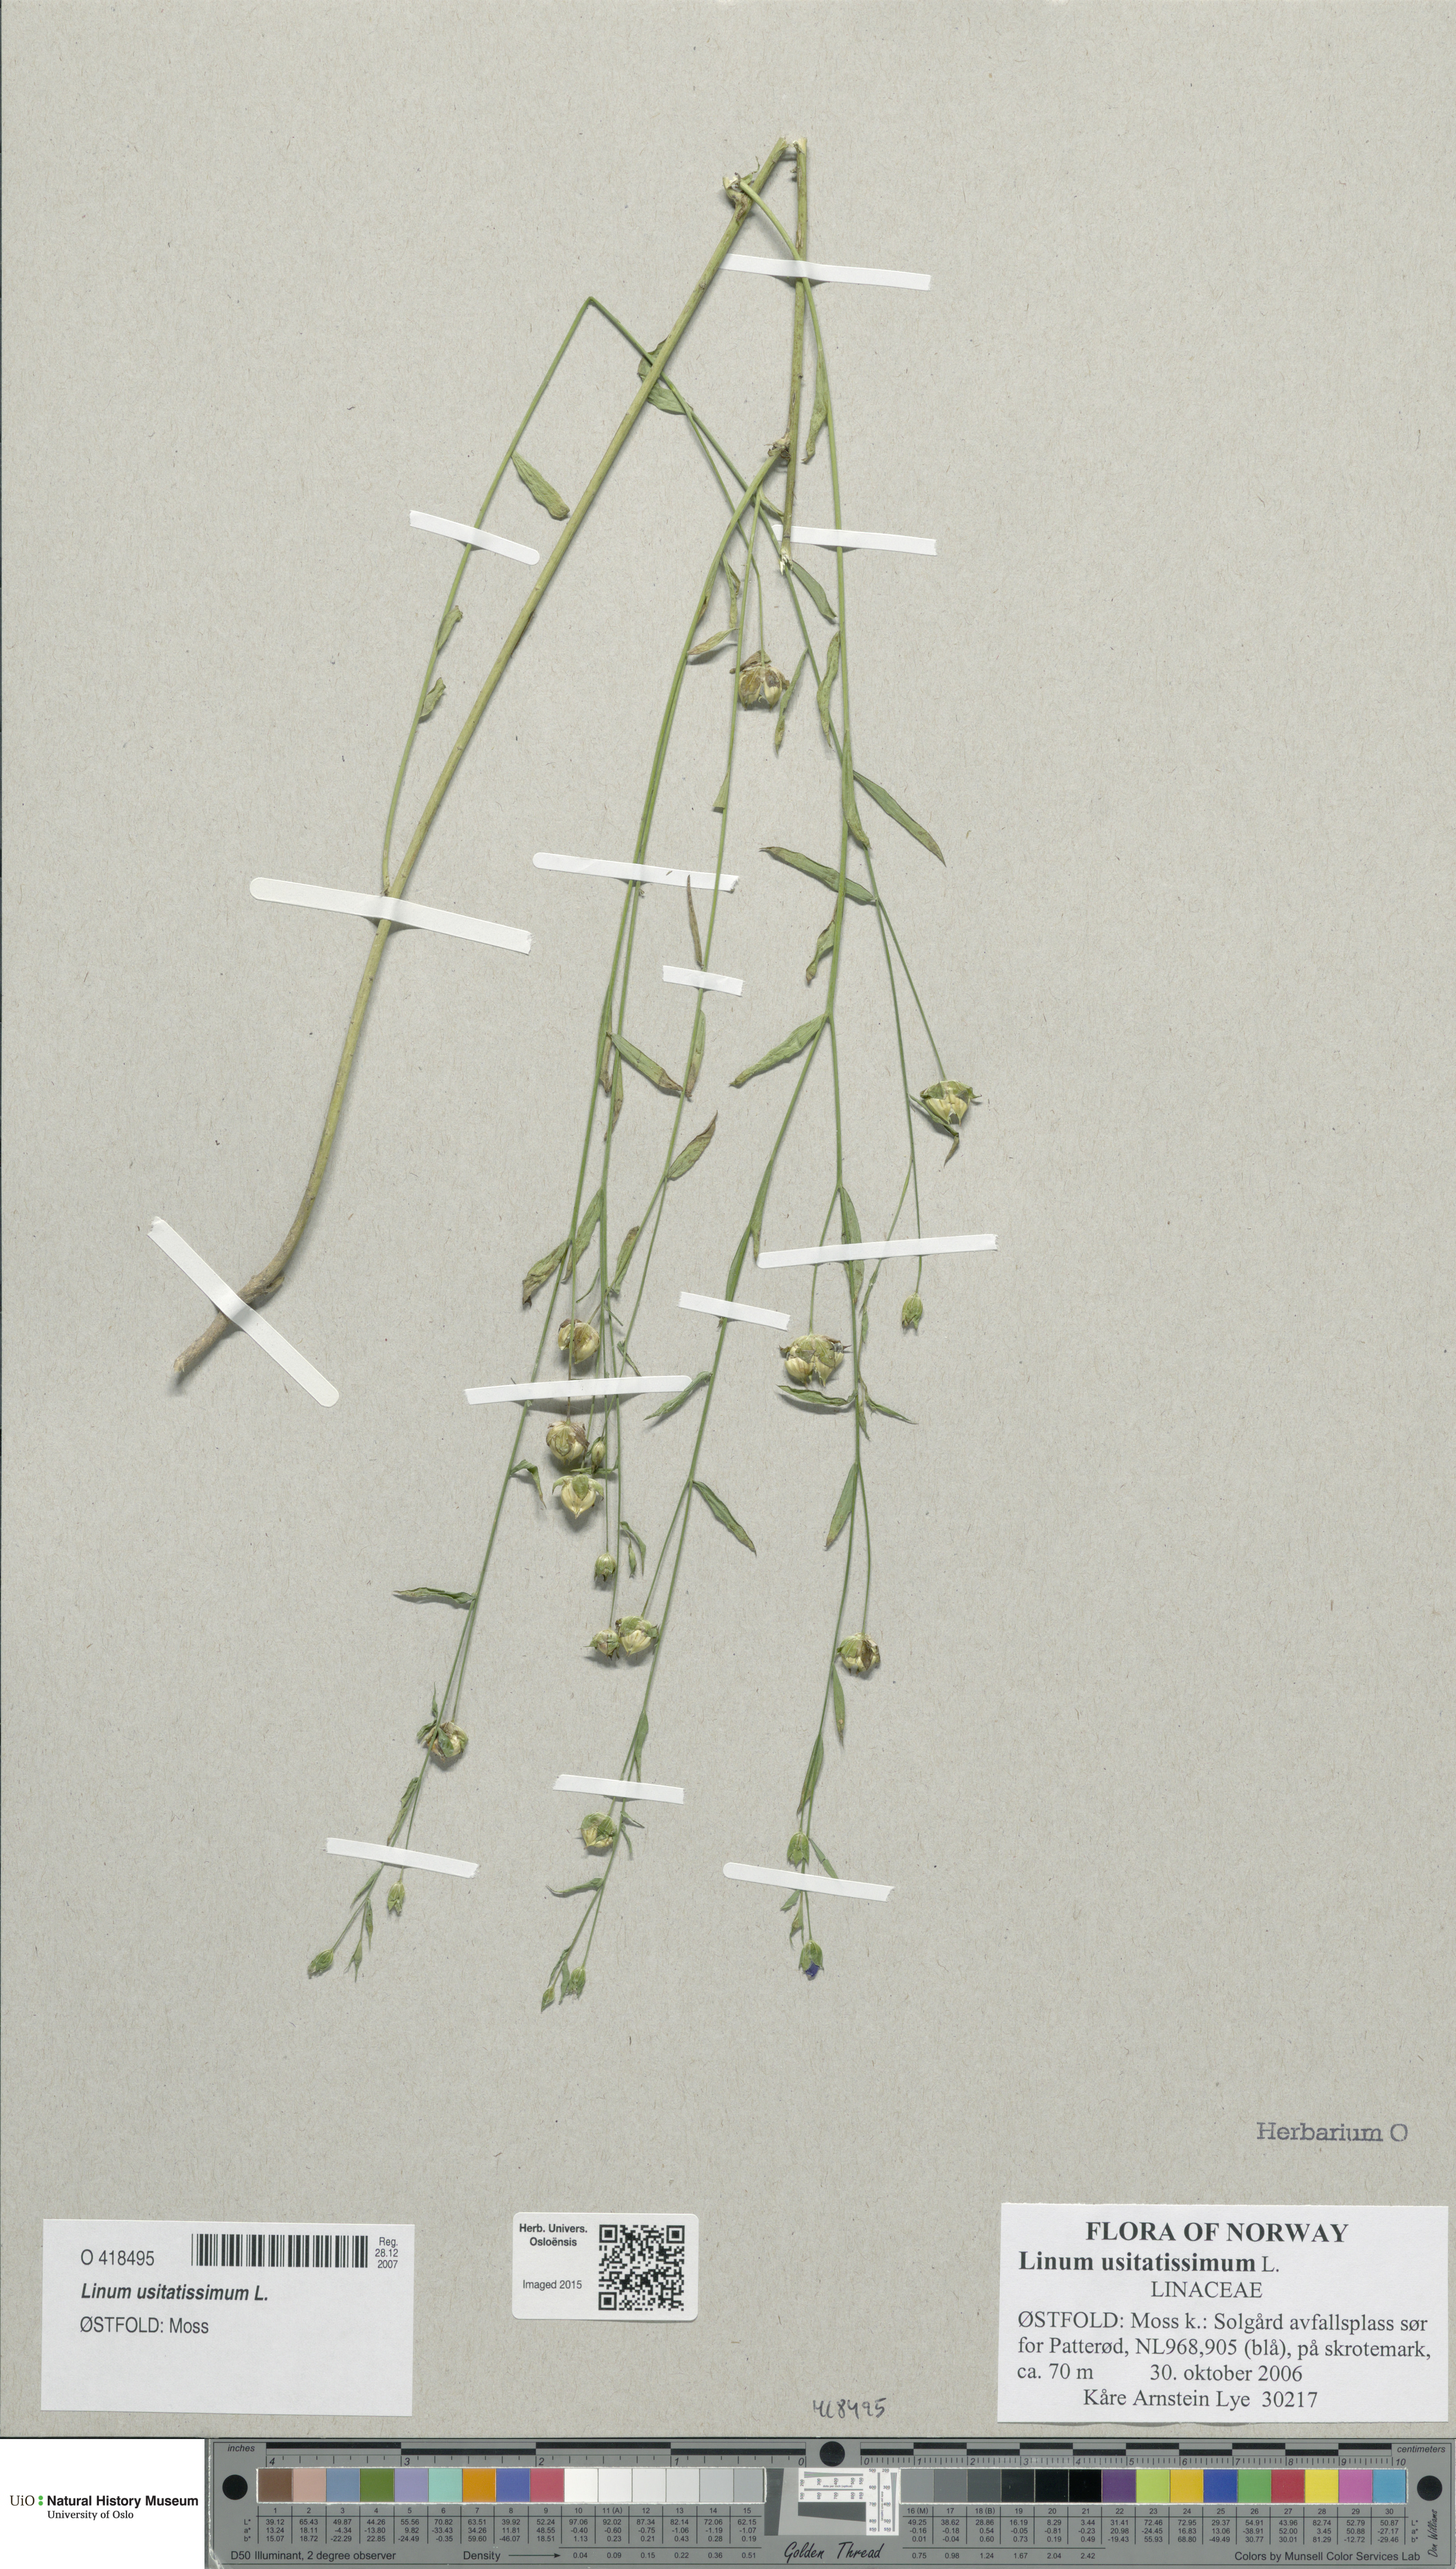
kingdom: Plantae
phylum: Tracheophyta
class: Magnoliopsida
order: Malpighiales
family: Linaceae
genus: Linum
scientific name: Linum usitatissimum
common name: Flax
